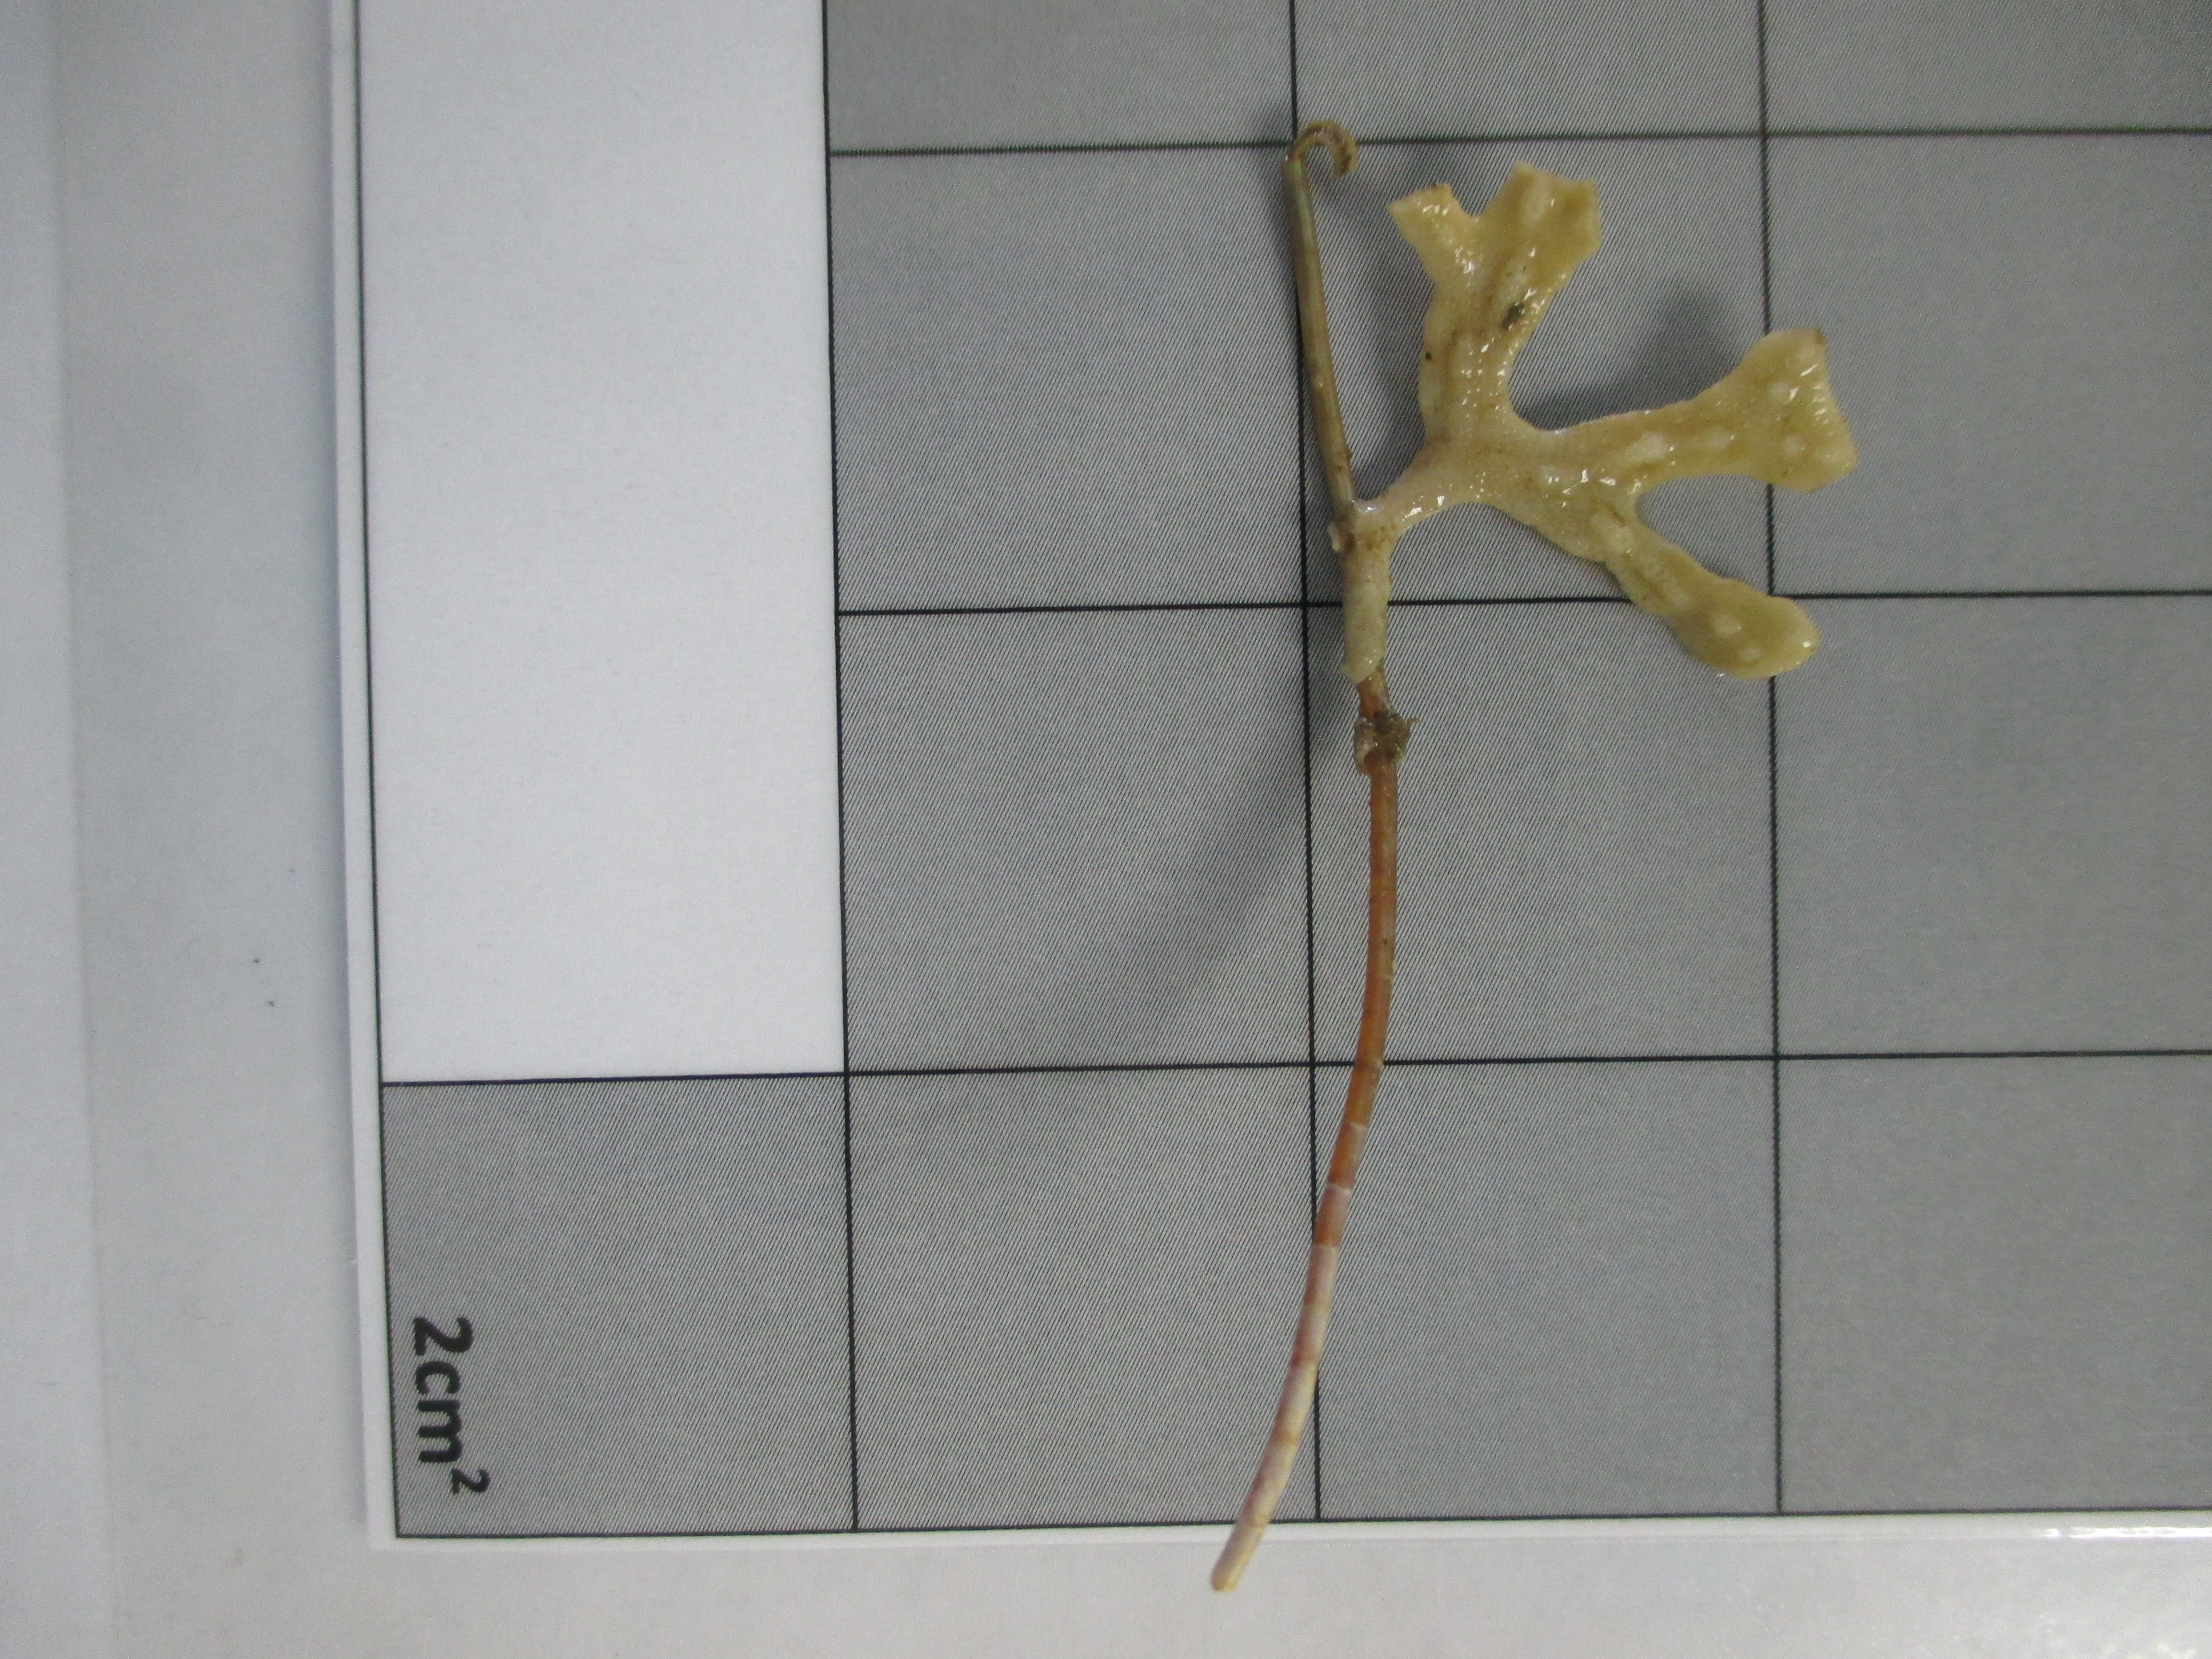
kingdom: Animalia
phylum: Bryozoa
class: Gymnolaemata
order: Cheilostomatida
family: Adeonidae
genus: Adeonella
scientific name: Adeonella
